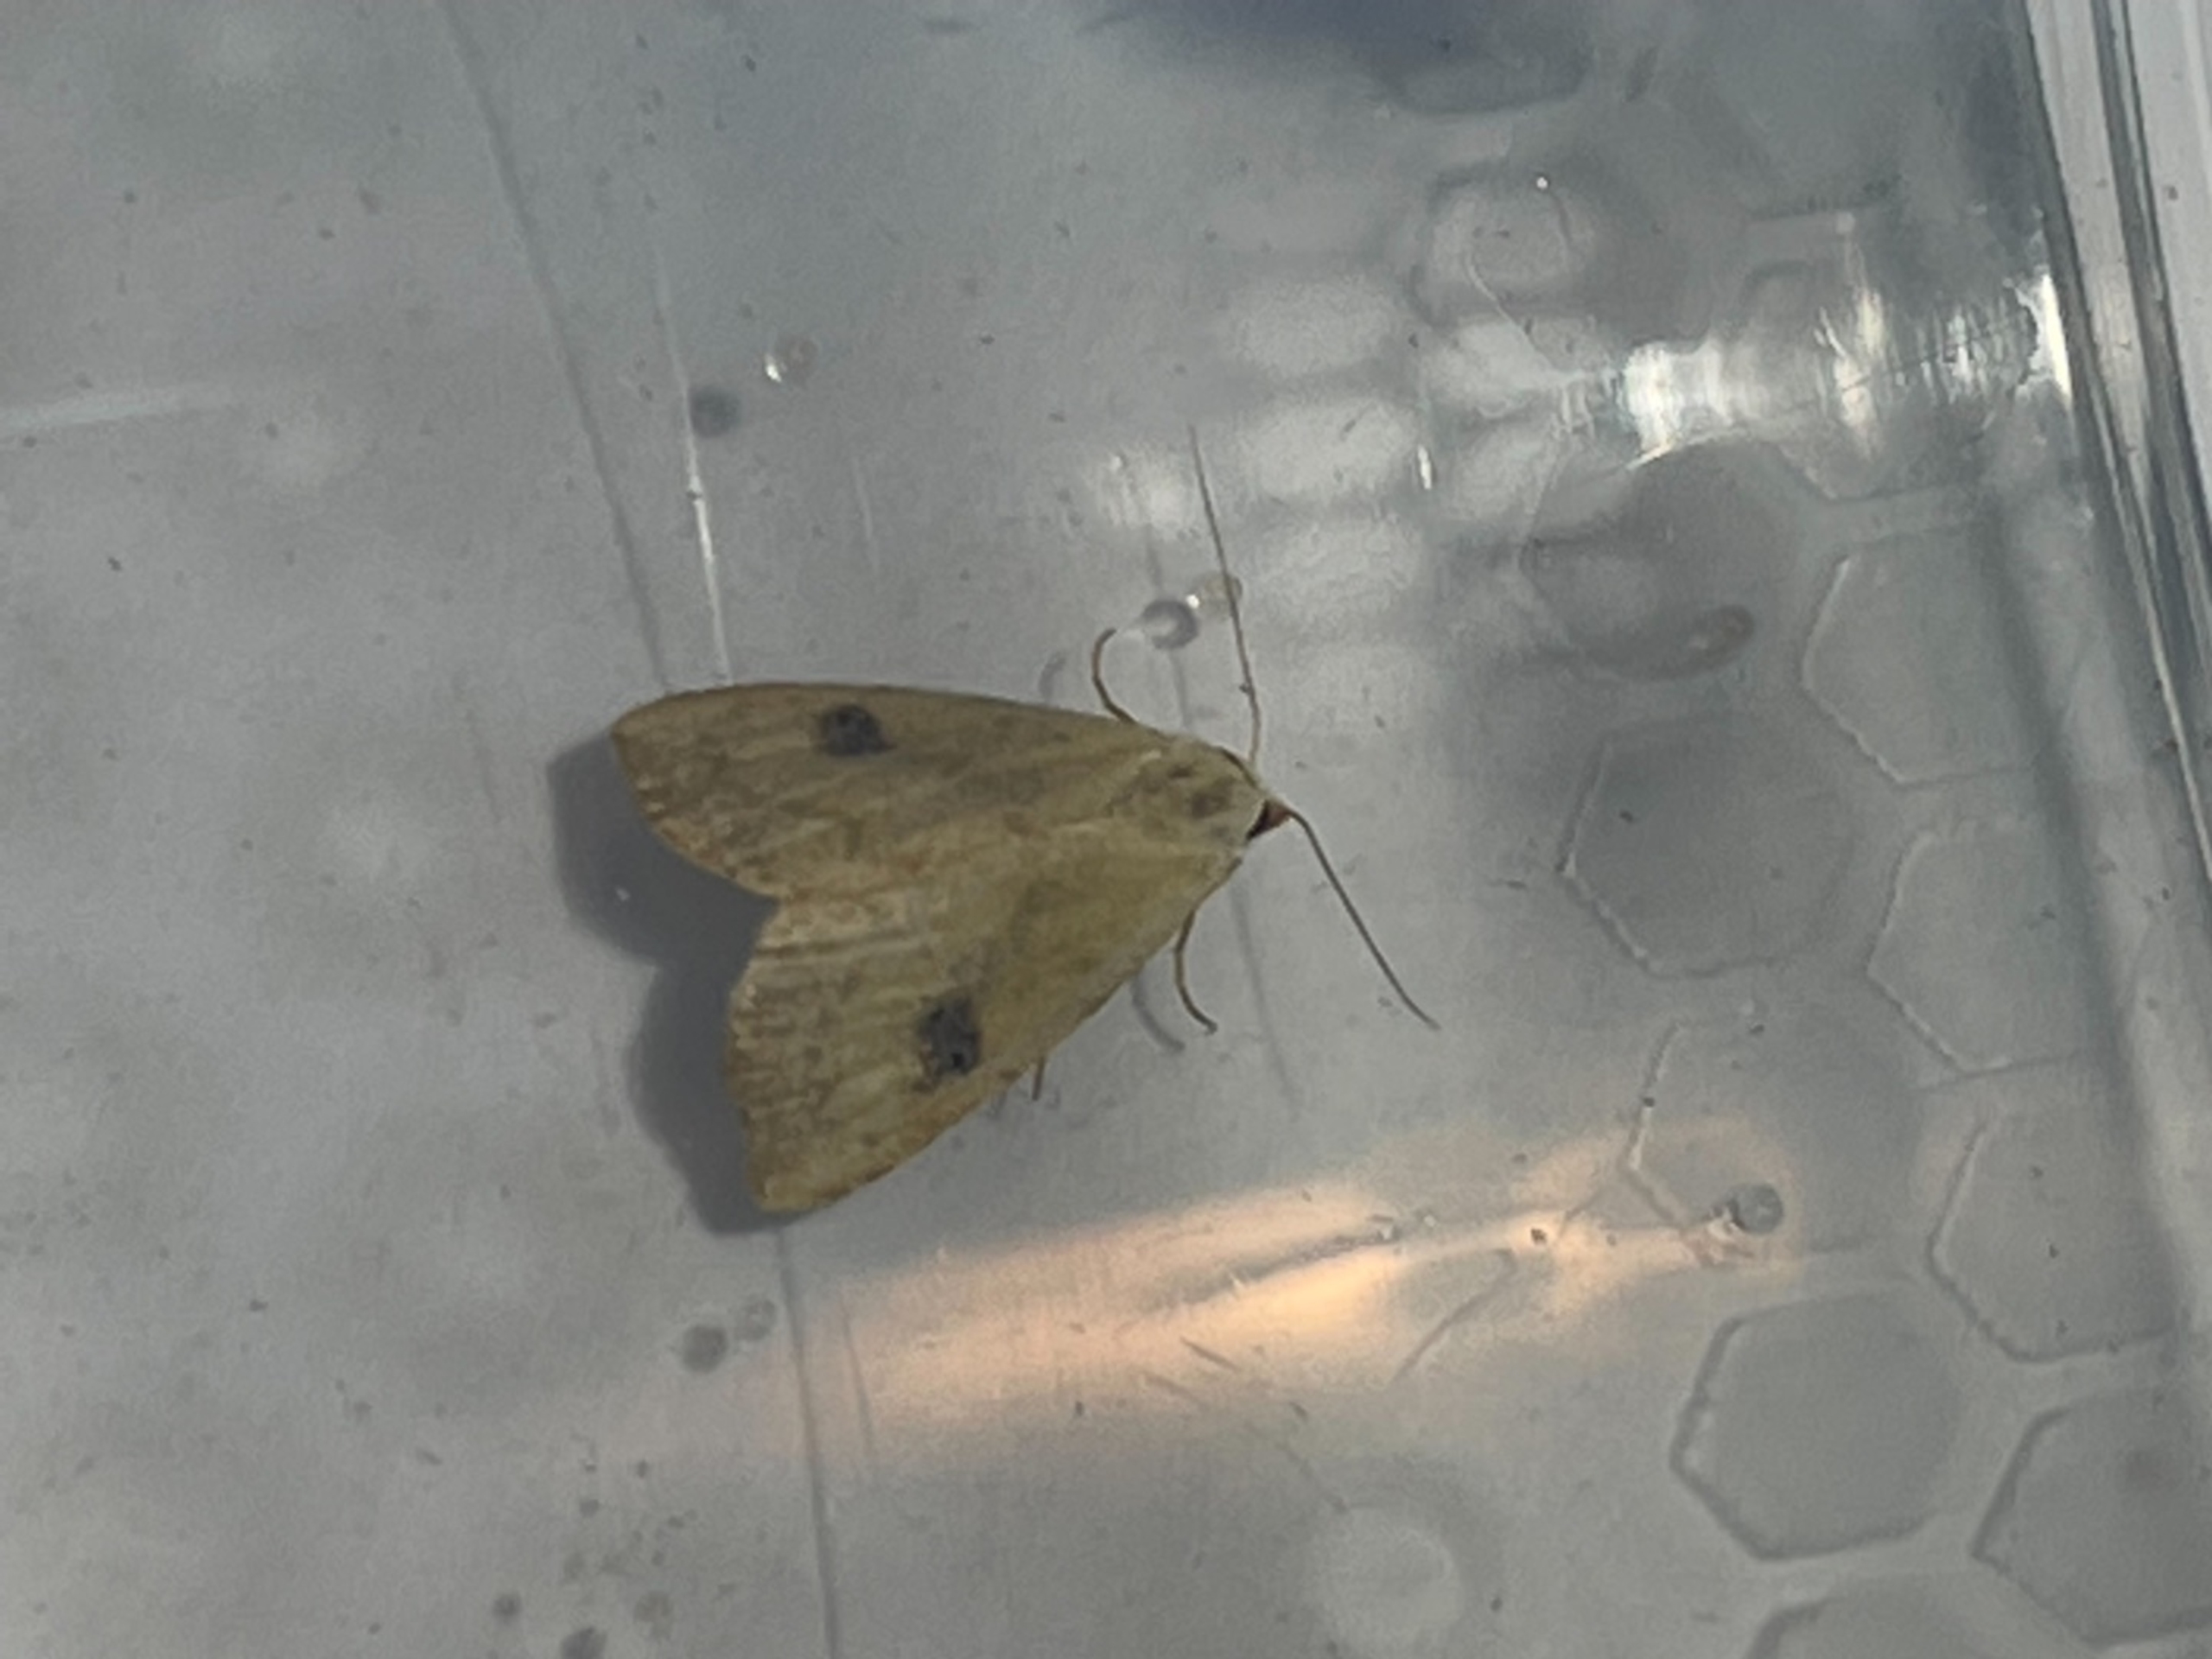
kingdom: Animalia
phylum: Arthropoda
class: Insecta
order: Lepidoptera
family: Erebidae
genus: Rivula
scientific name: Rivula sericealis
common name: Lille å-ugle
